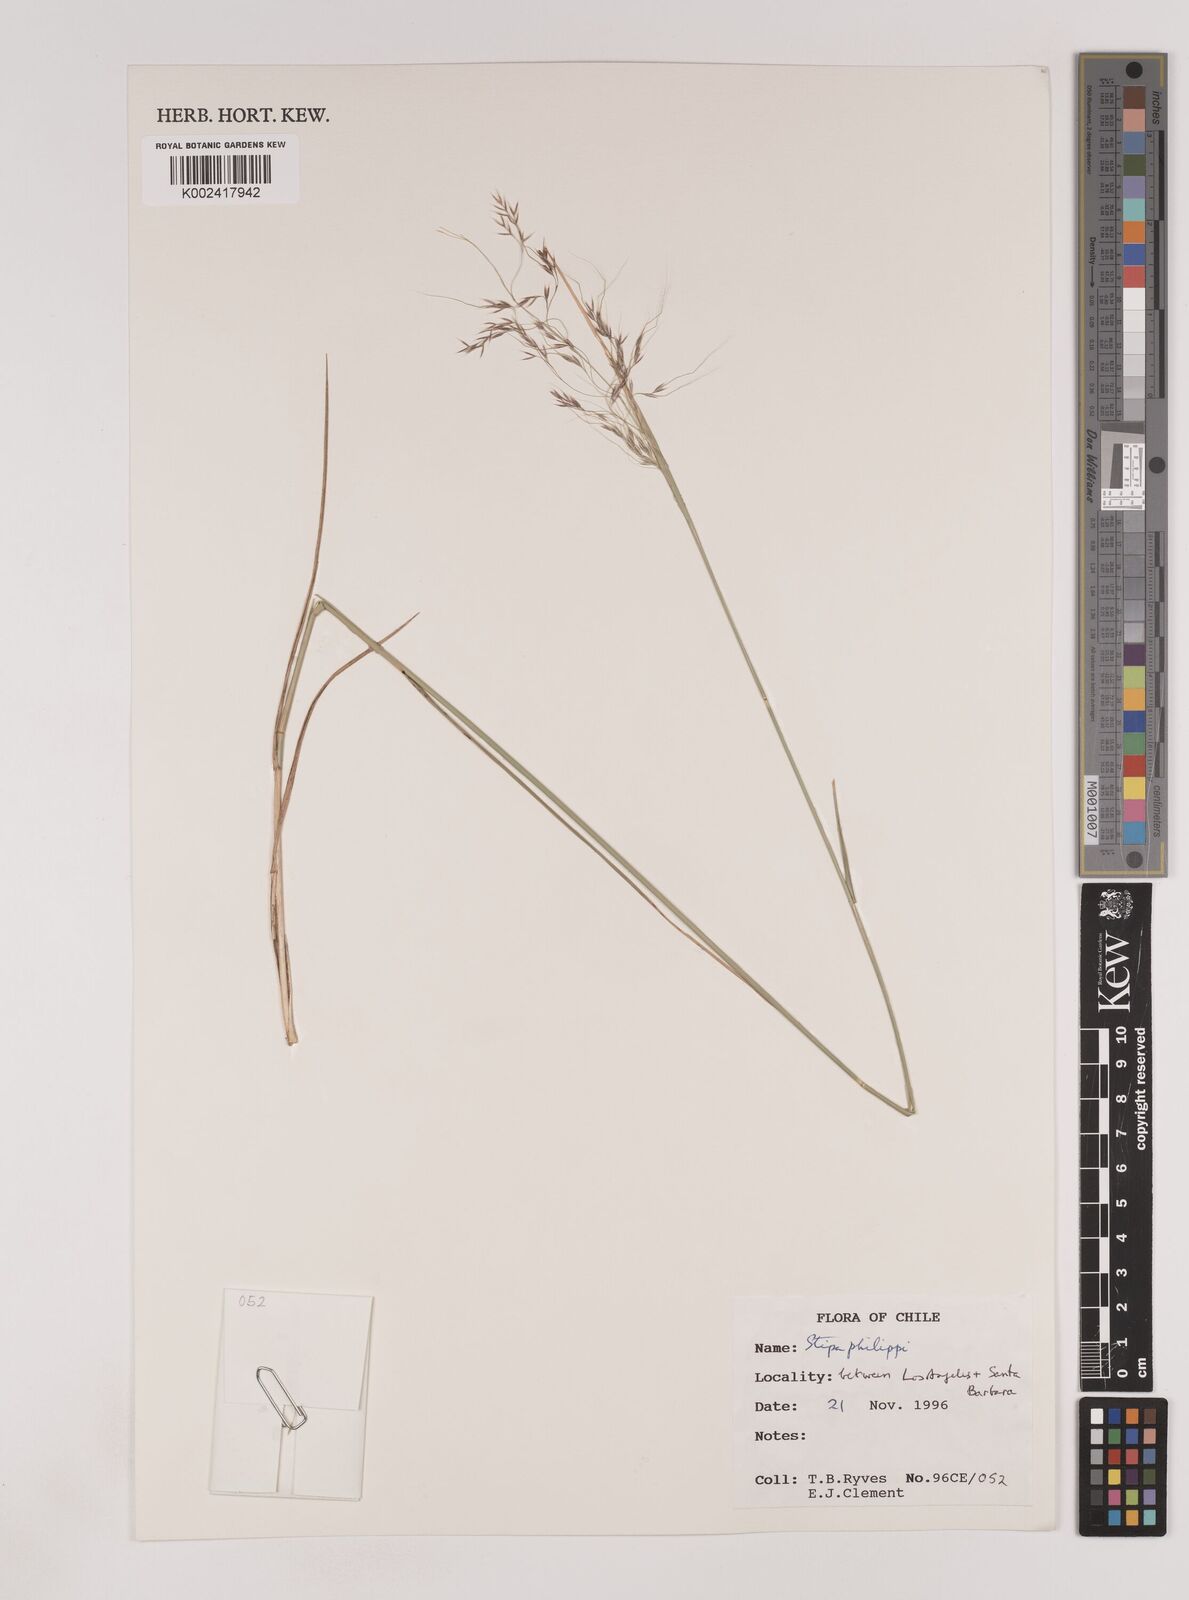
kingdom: Plantae
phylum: Tracheophyta
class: Liliopsida
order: Poales
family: Poaceae
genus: Nassella
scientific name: Nassella philippii
